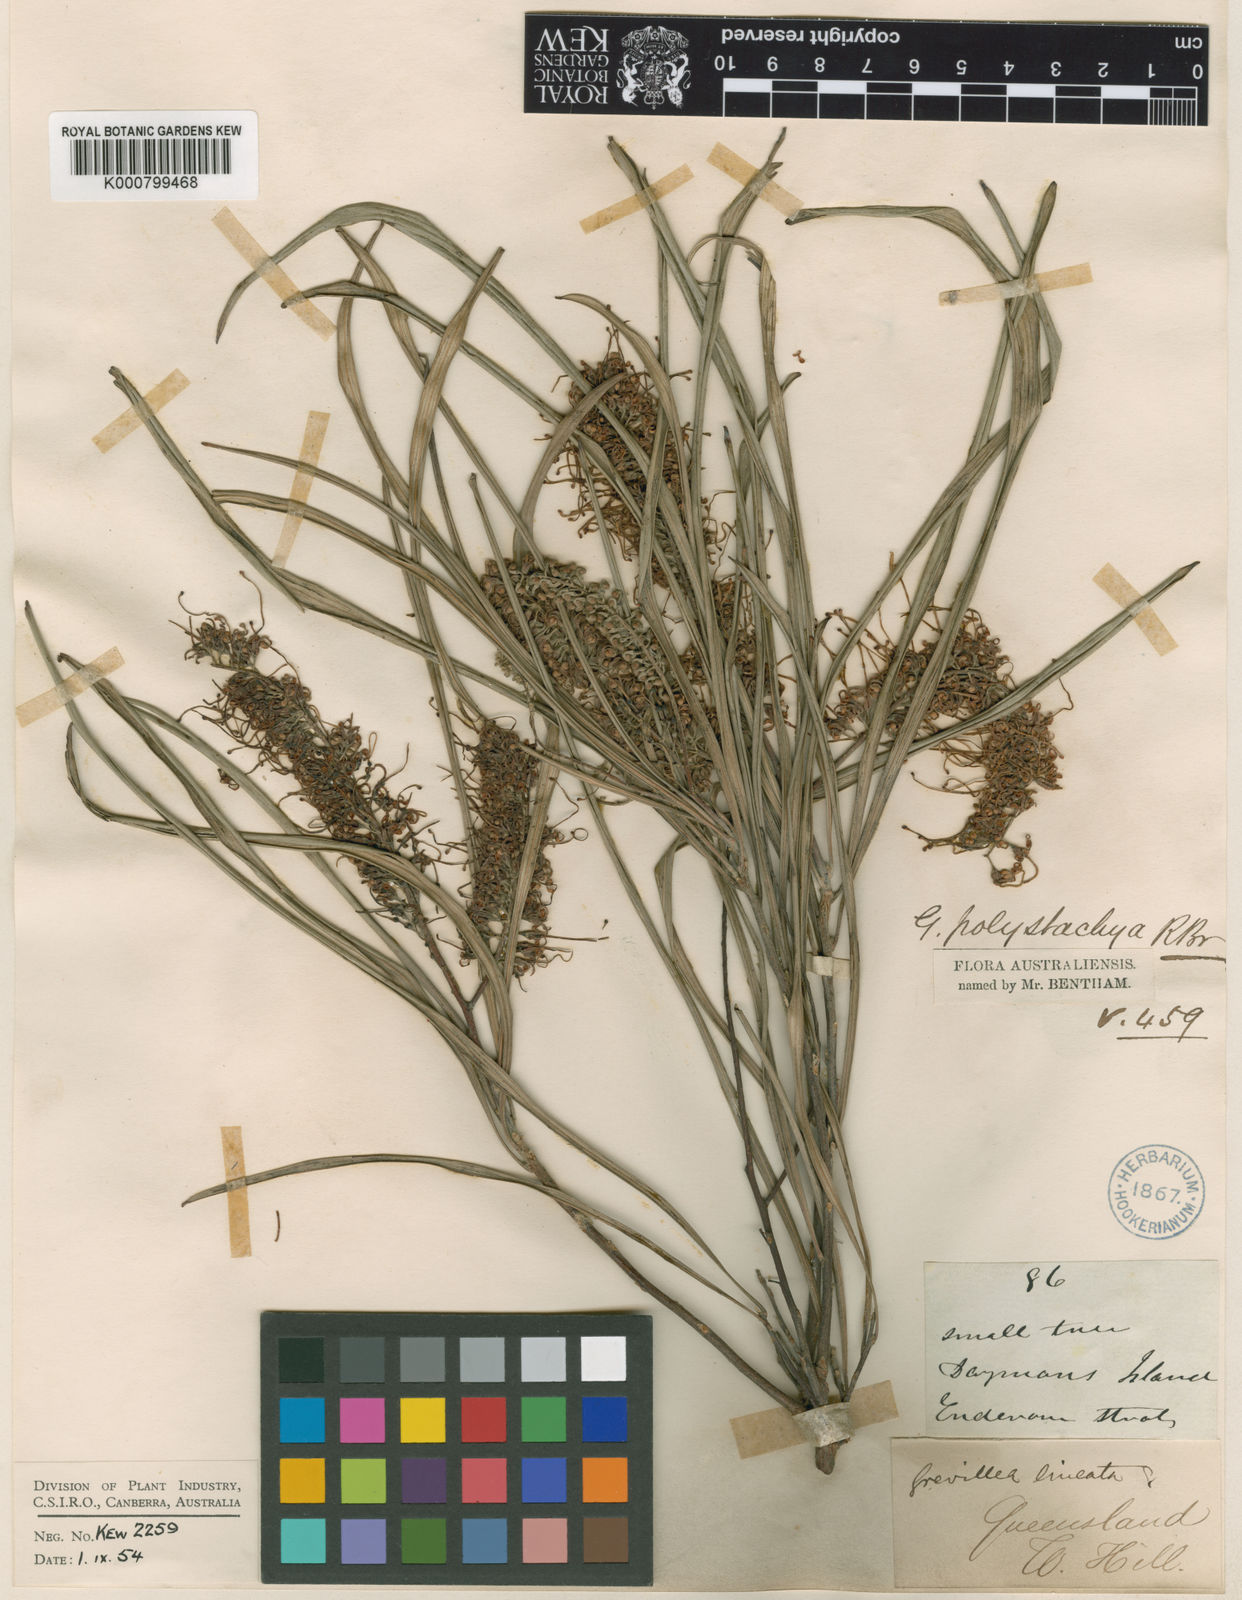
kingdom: Plantae
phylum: Tracheophyta
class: Magnoliopsida
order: Proteales
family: Proteaceae
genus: Grevillea
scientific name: Grevillea parallela
